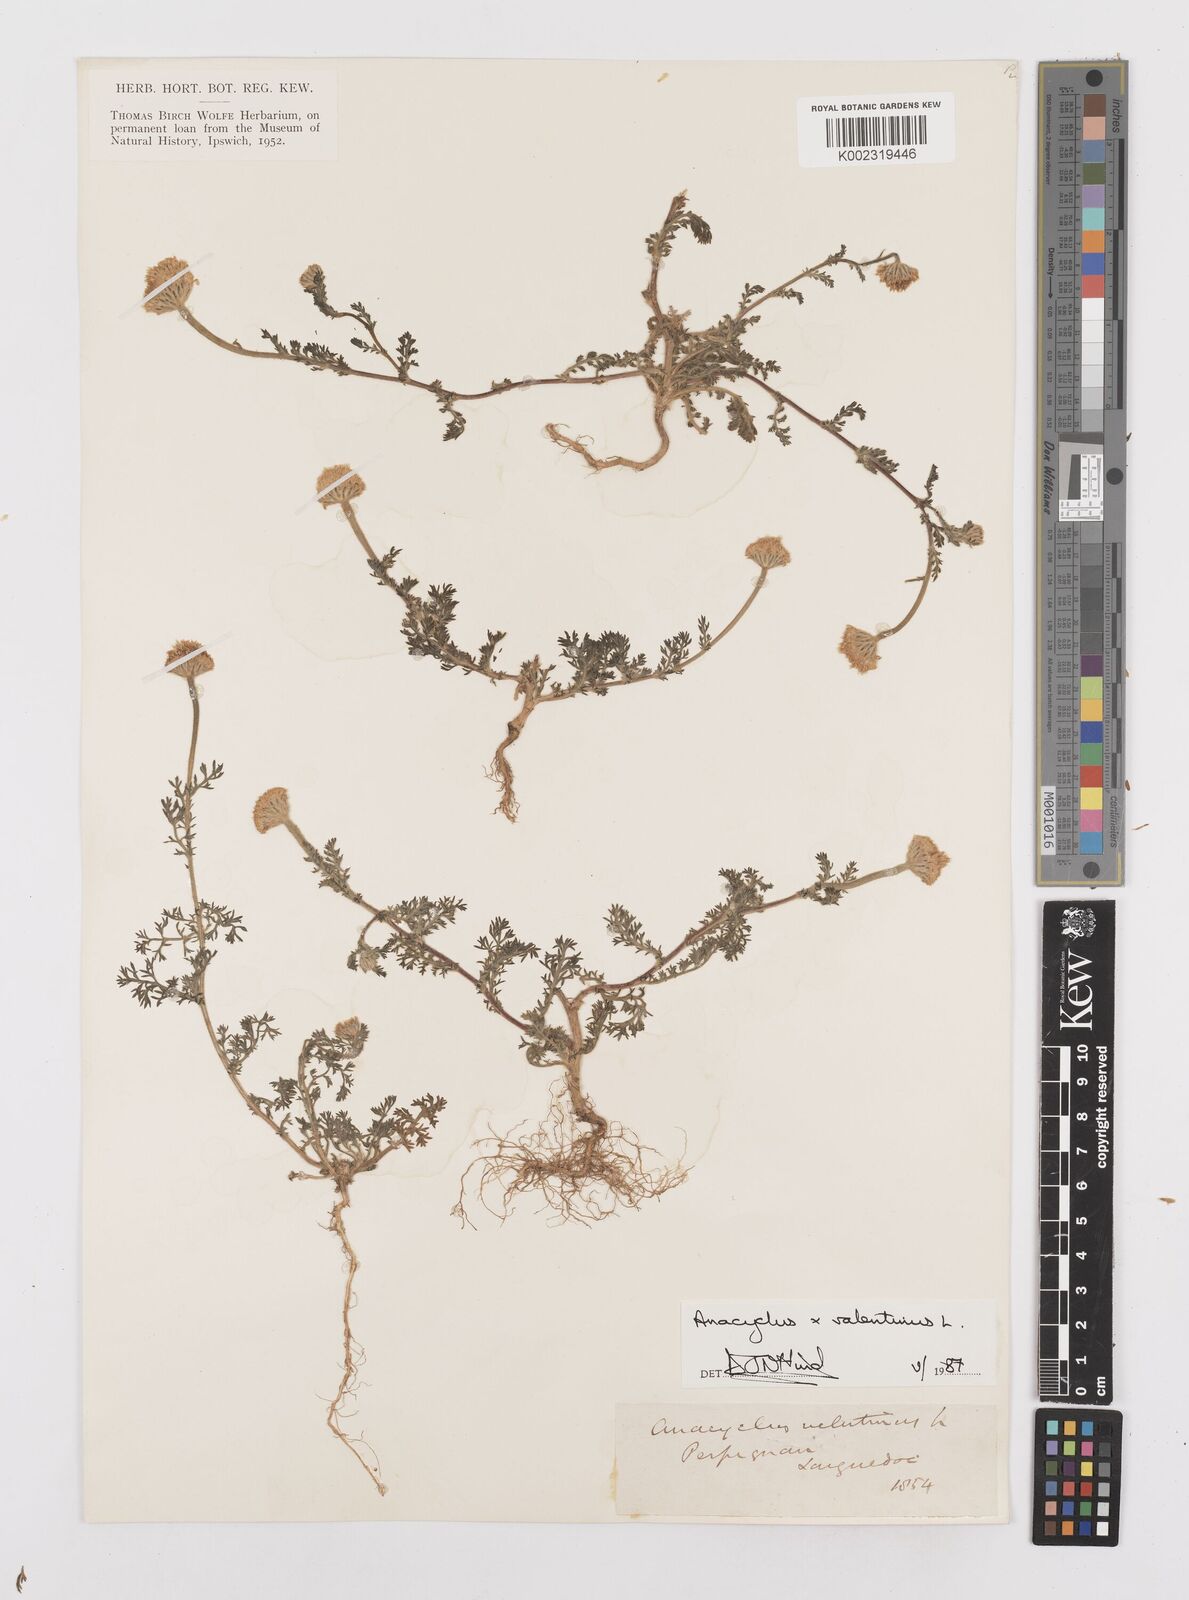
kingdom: Plantae
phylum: Tracheophyta
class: Magnoliopsida
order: Asterales
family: Asteraceae
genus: Anacyclus
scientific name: Anacyclus valentinus
